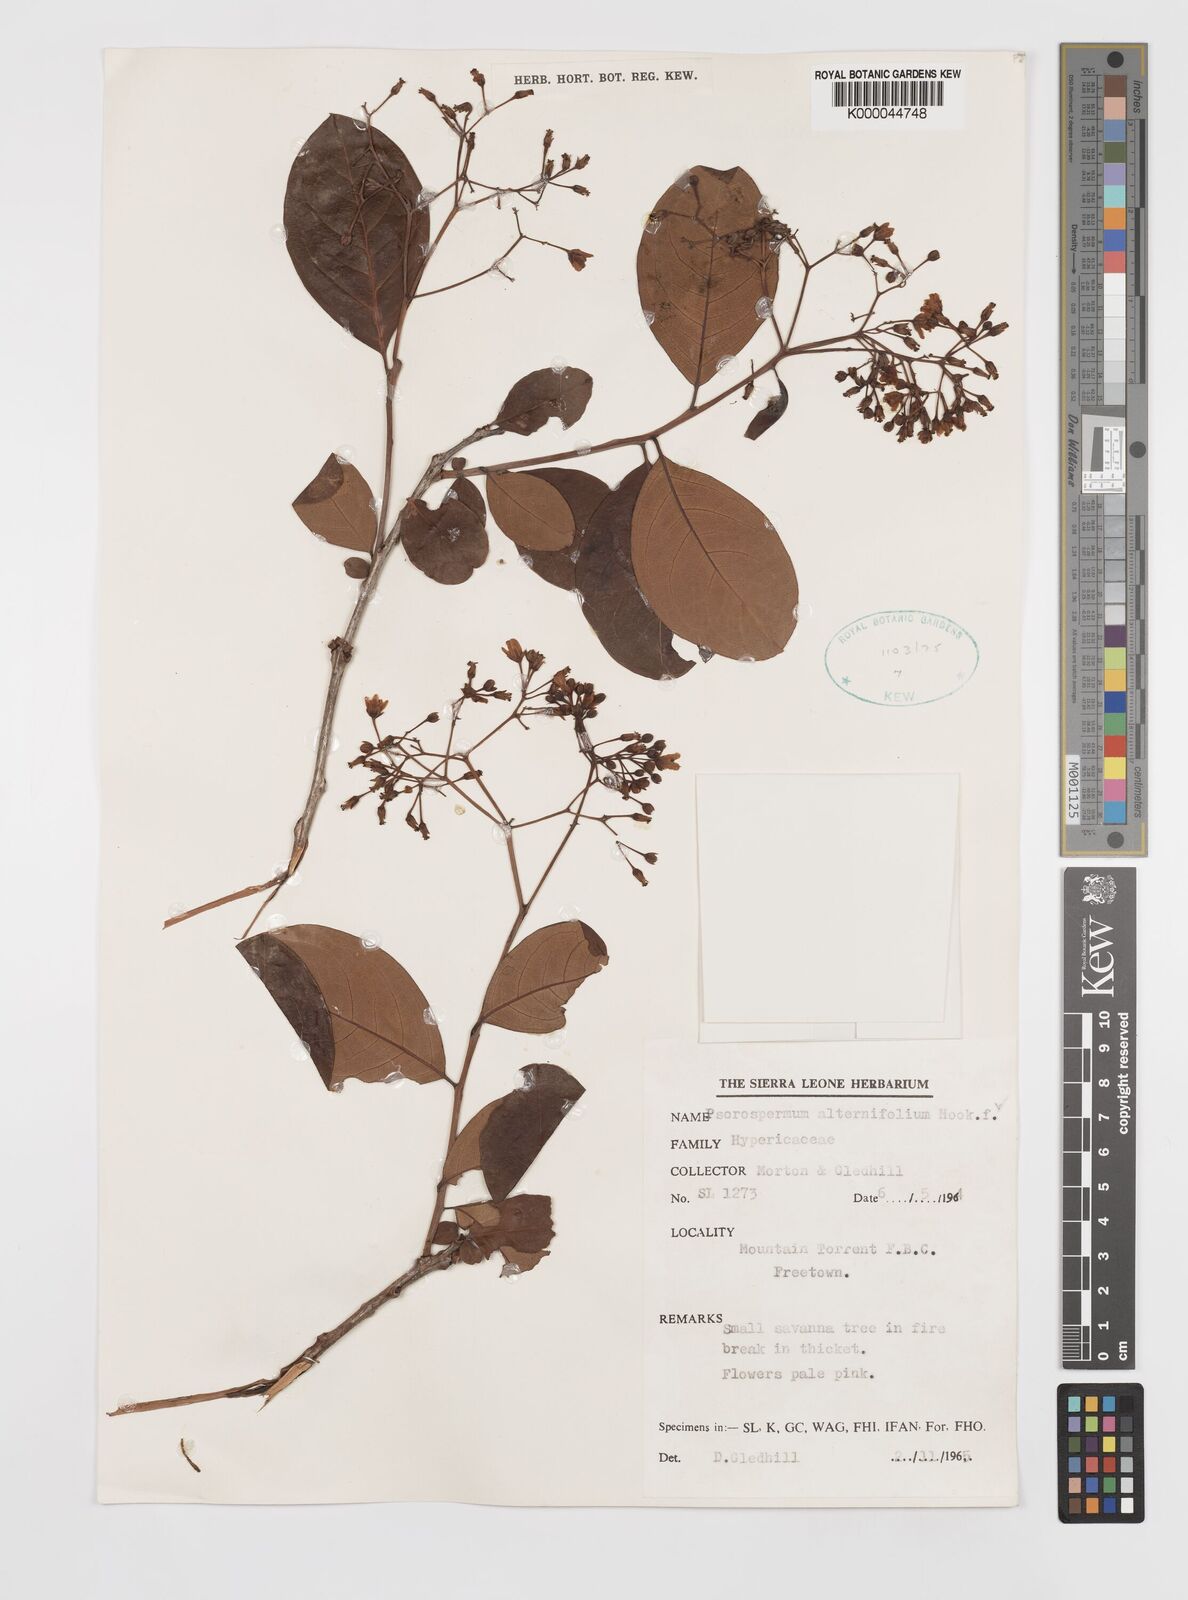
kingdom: Plantae
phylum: Tracheophyta
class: Magnoliopsida
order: Malpighiales
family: Hypericaceae
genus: Psorospermum
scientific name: Psorospermum alternifolium
